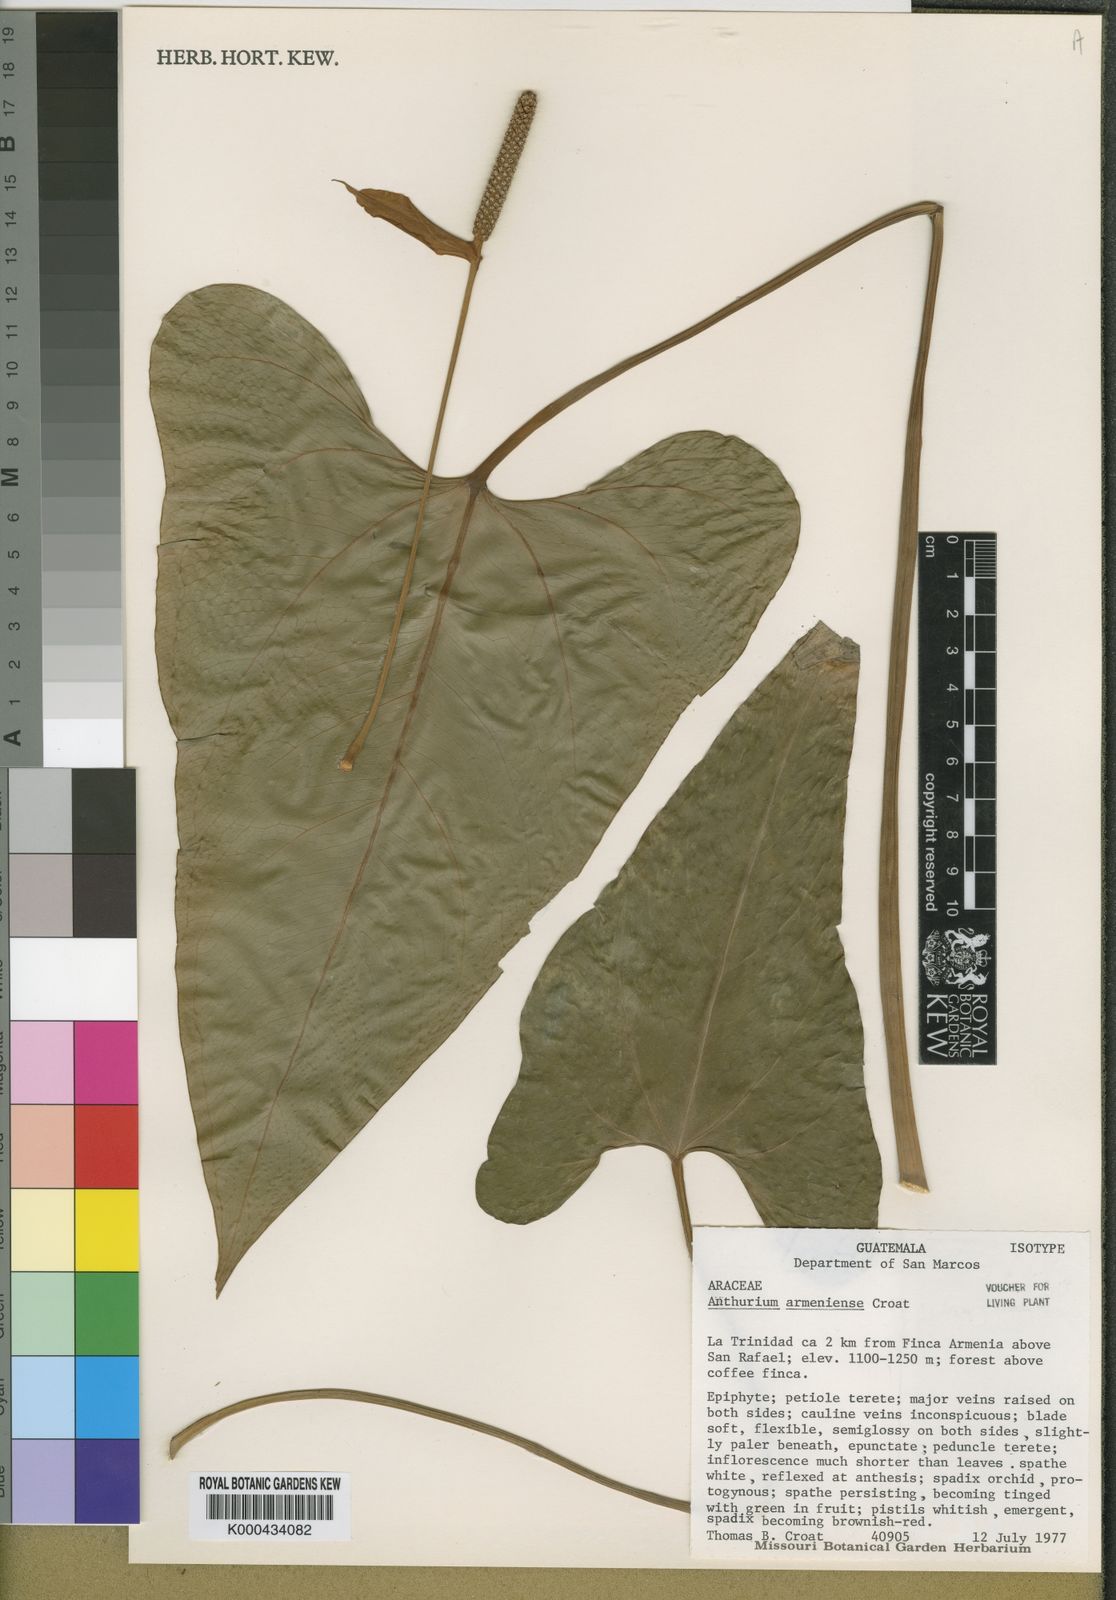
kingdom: Plantae
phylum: Tracheophyta
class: Liliopsida
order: Alismatales
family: Araceae
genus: Anthurium
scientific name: Anthurium armeniense
